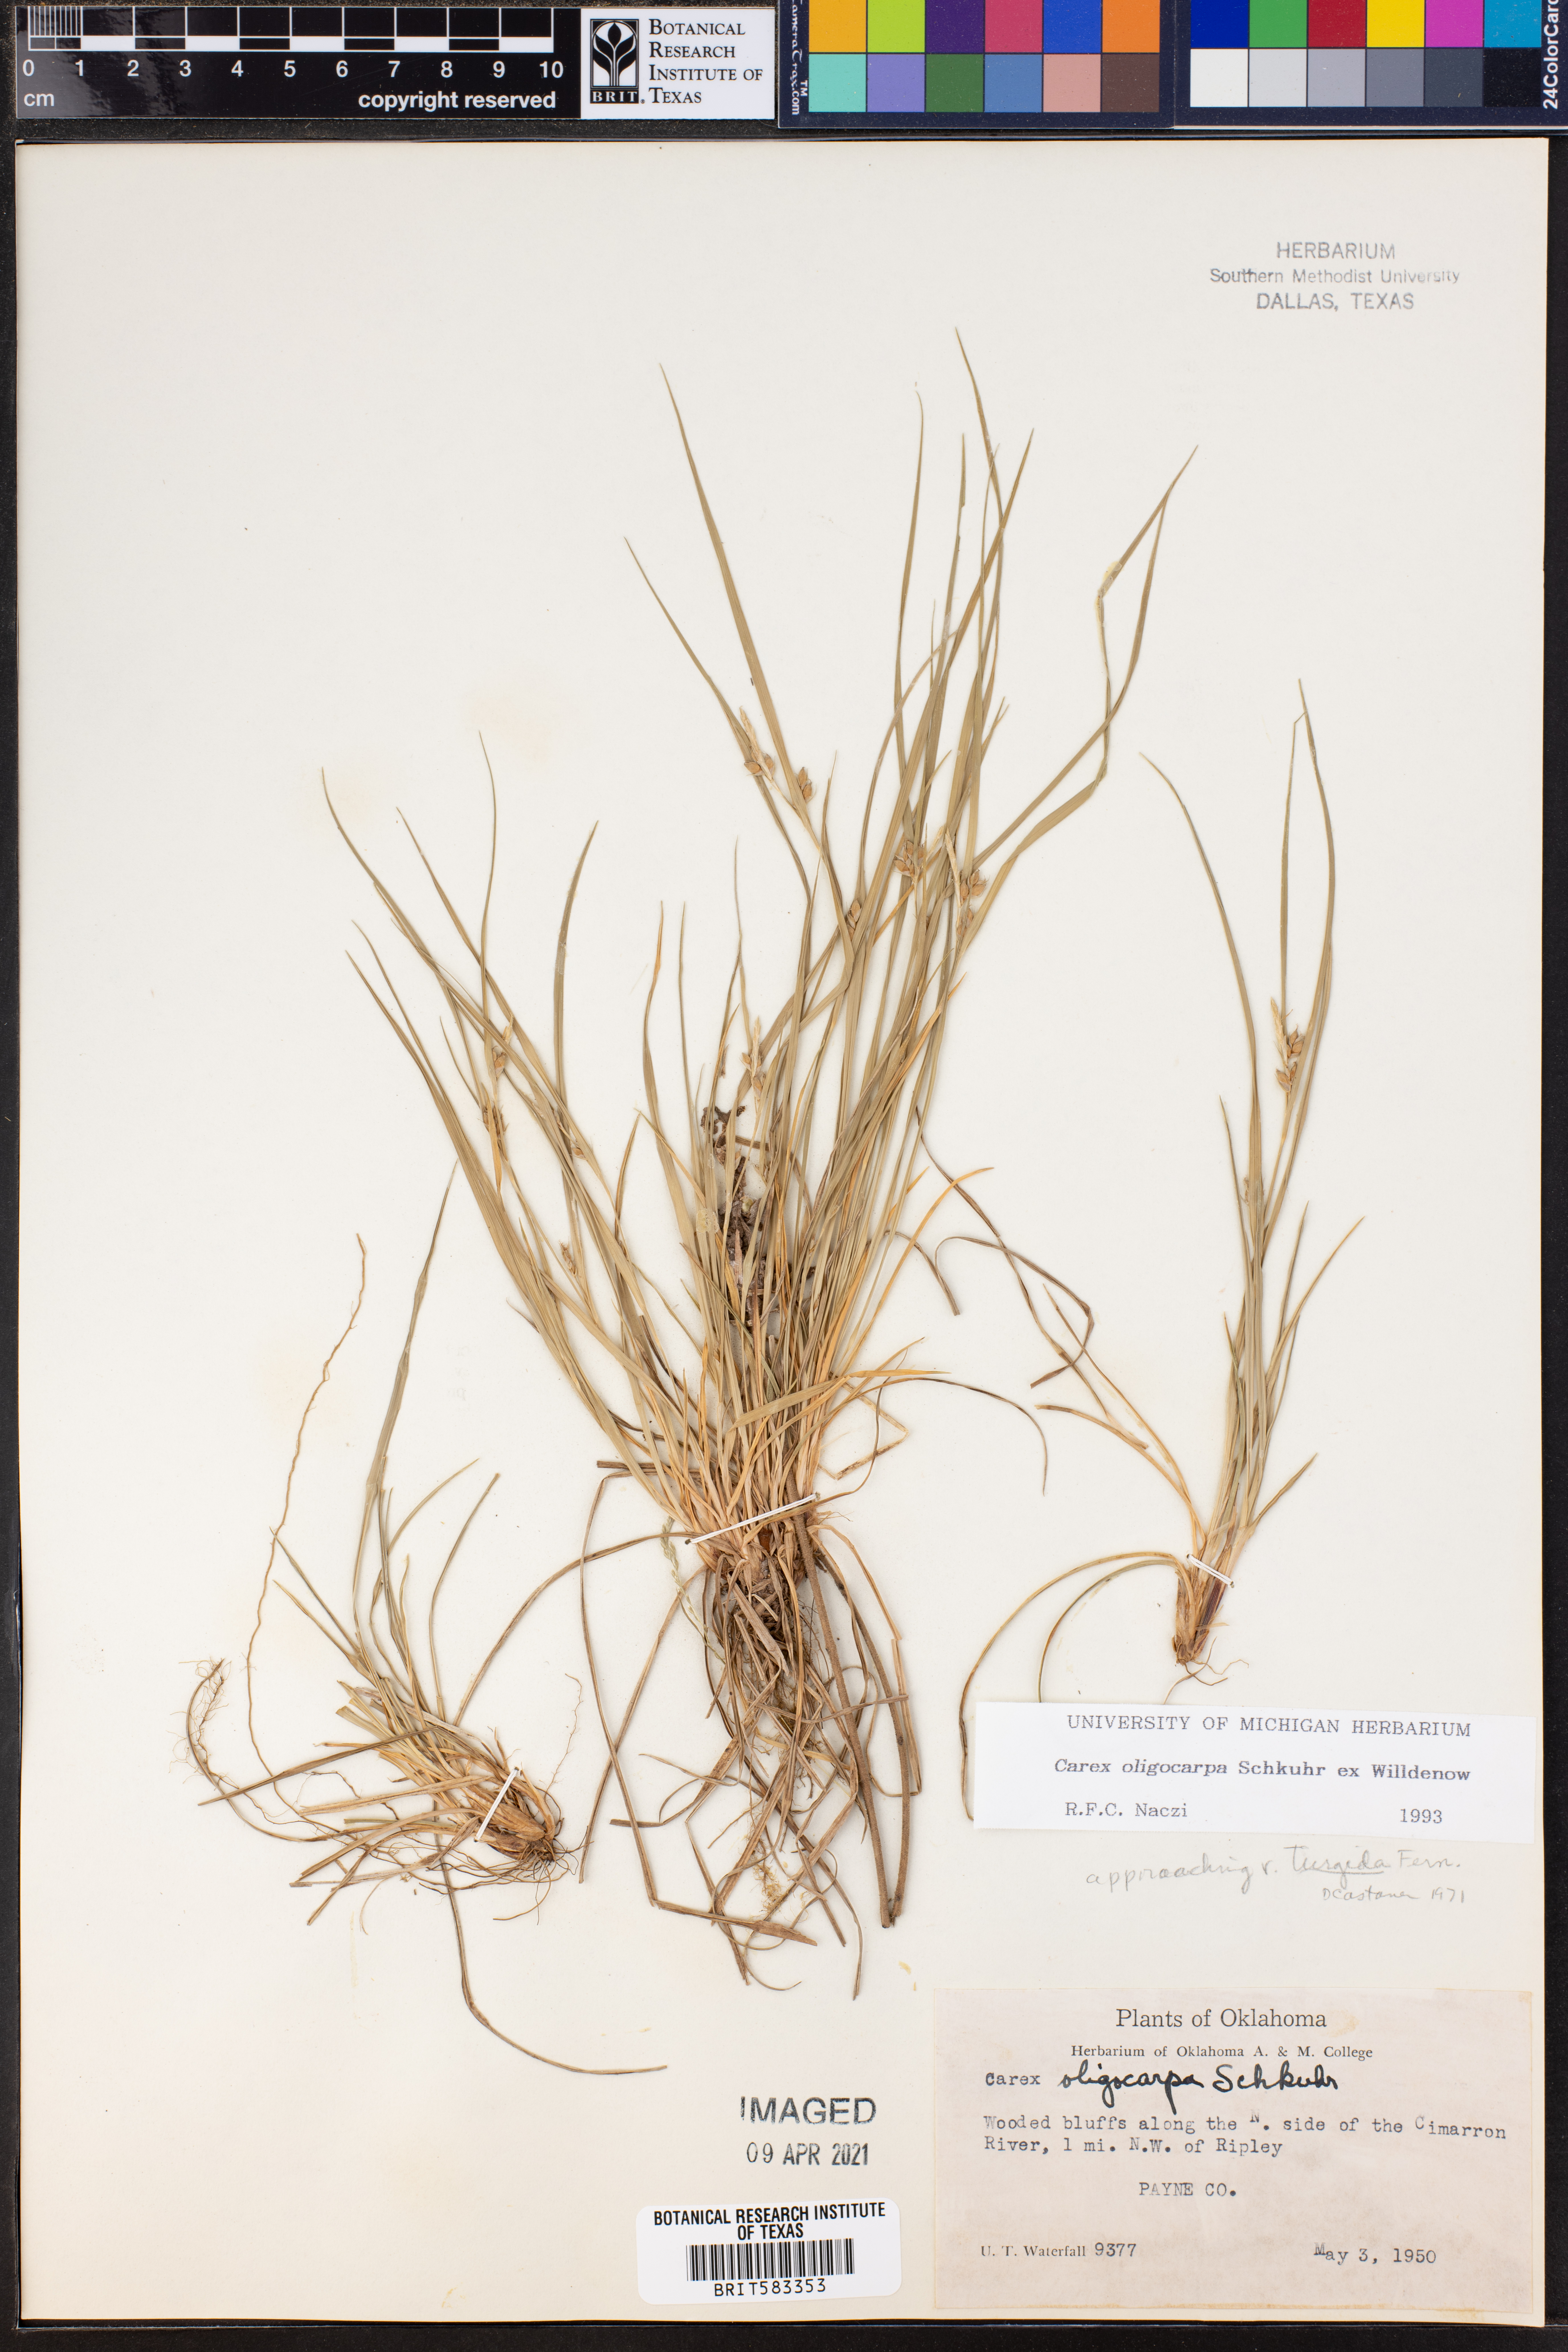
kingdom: Plantae
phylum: Tracheophyta
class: Liliopsida
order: Poales
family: Cyperaceae
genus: Carex
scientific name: Carex oligocarpa
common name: Eastern few-fruited sedge
